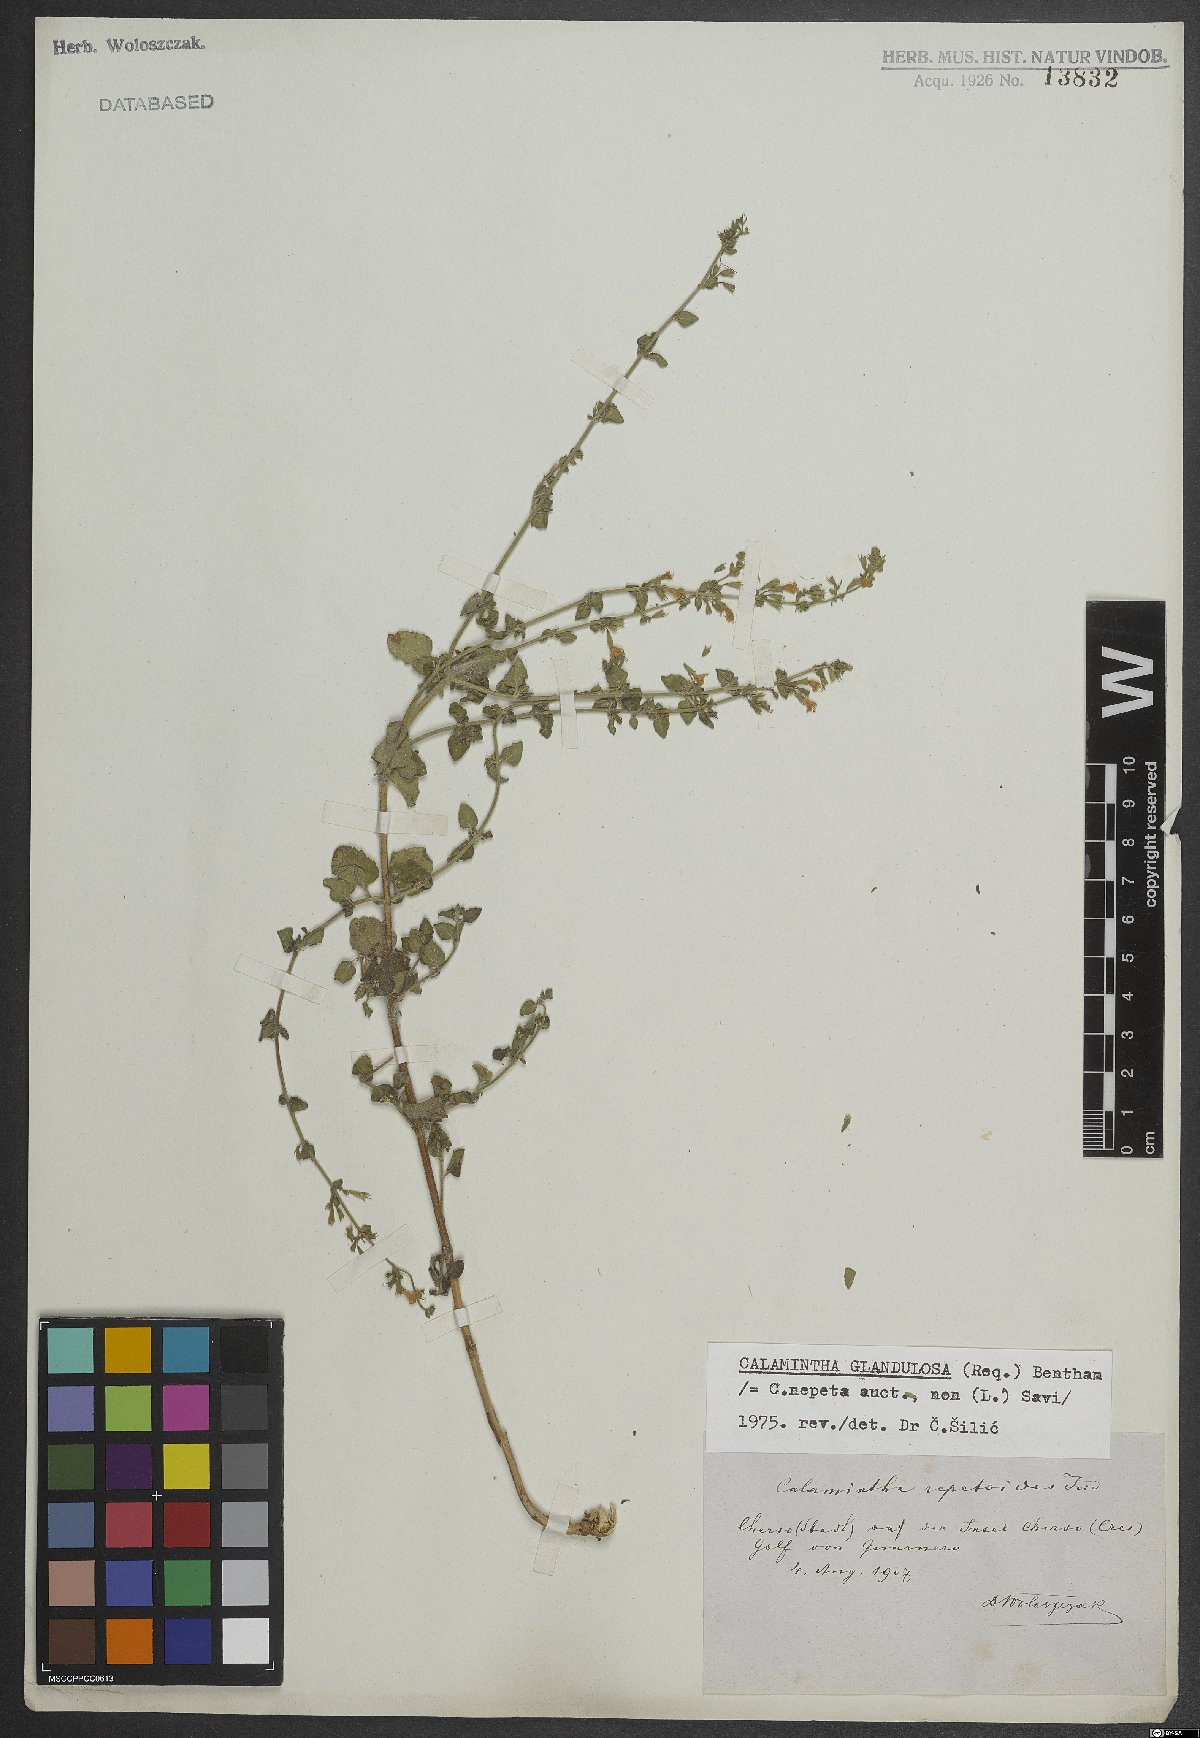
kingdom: Plantae
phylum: Tracheophyta
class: Magnoliopsida
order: Lamiales
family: Lamiaceae
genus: Clinopodium
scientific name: Clinopodium nepeta
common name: Lesser calamint
